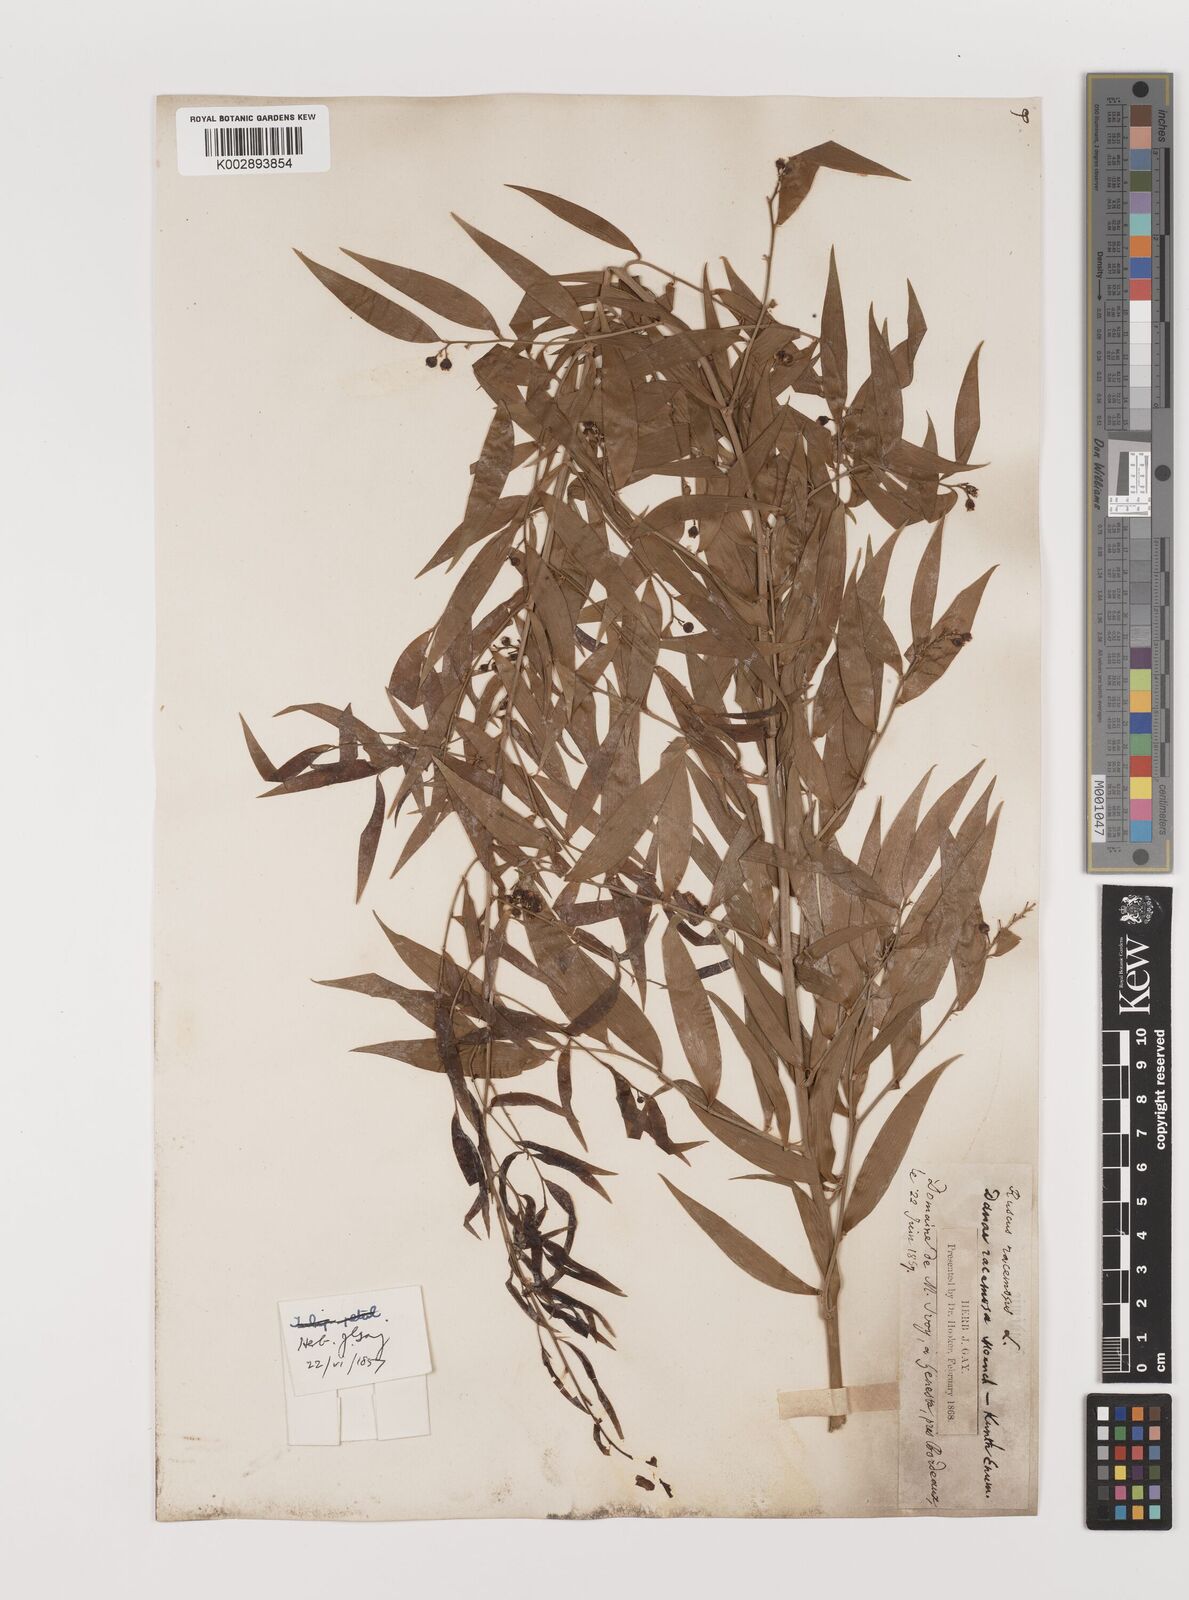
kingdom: Plantae
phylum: Tracheophyta
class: Liliopsida
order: Asparagales
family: Asparagaceae
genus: Danae
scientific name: Danae
